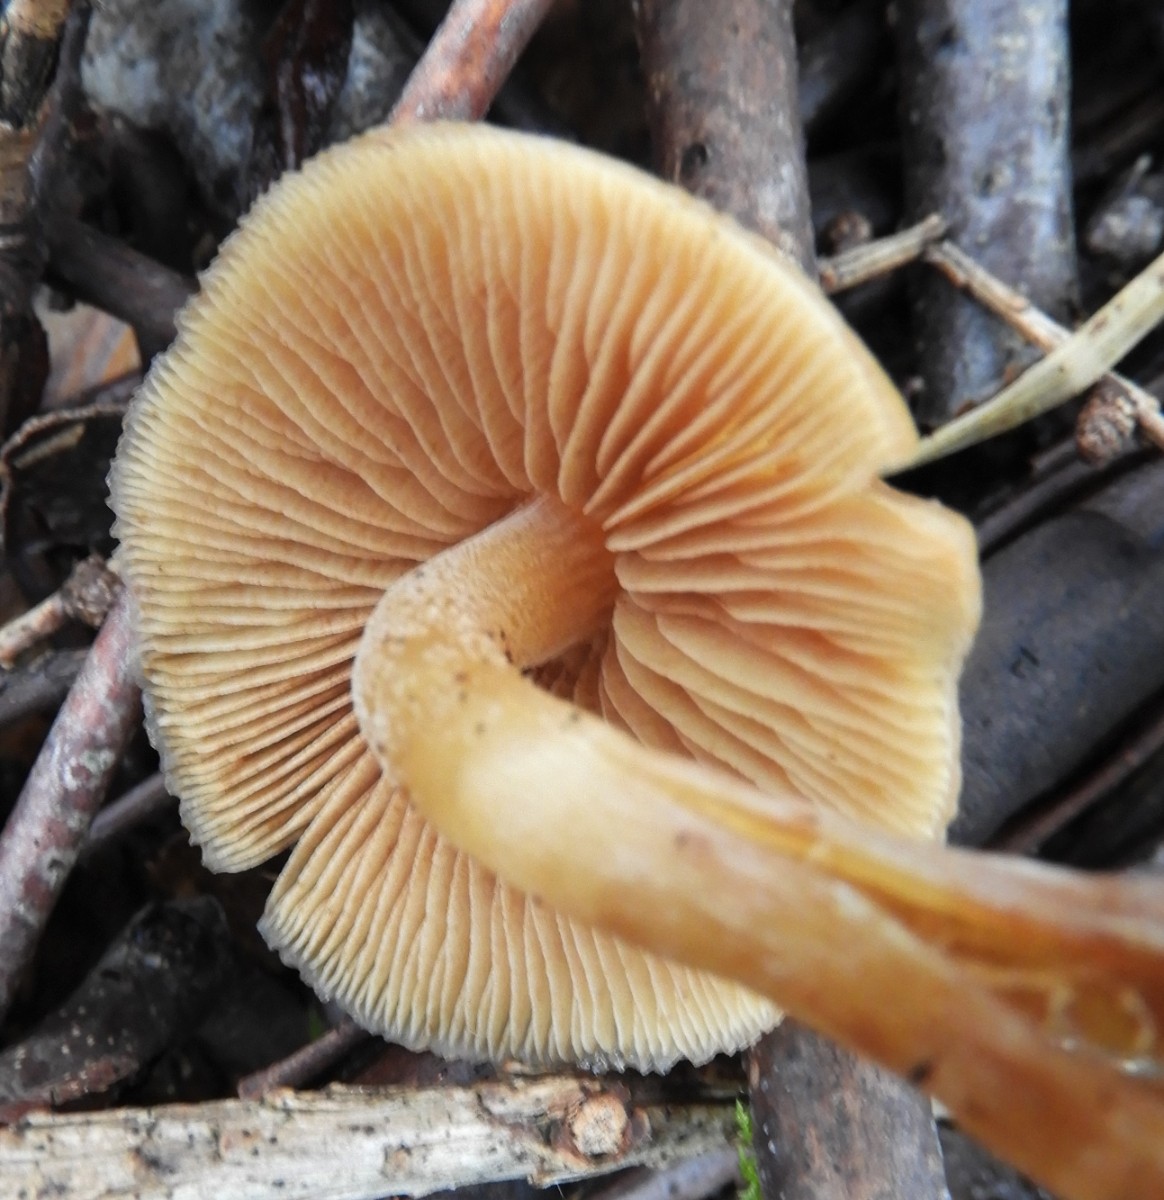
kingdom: Fungi
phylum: Basidiomycota
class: Agaricomycetes
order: Agaricales
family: Hymenogastraceae
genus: Galerina
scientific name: Galerina
